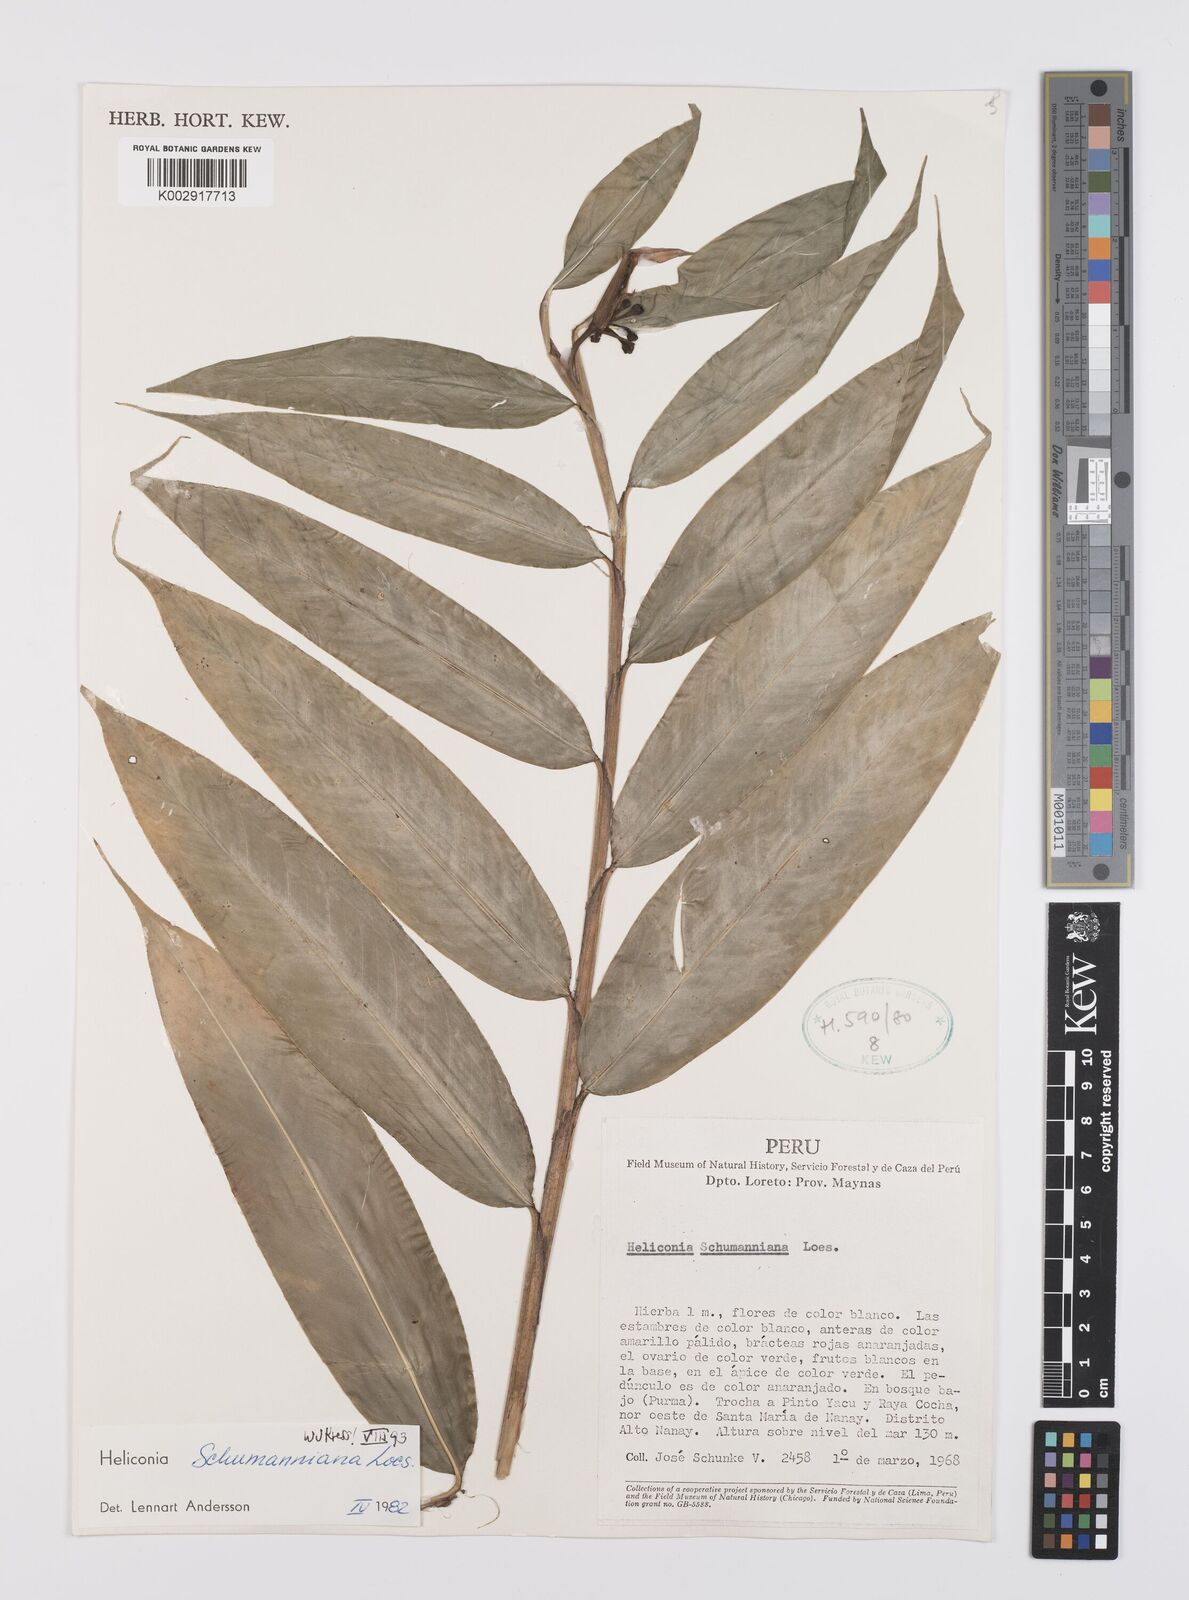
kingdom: Plantae
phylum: Tracheophyta
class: Liliopsida
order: Zingiberales
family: Heliconiaceae
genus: Heliconia
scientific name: Heliconia schumanniana
